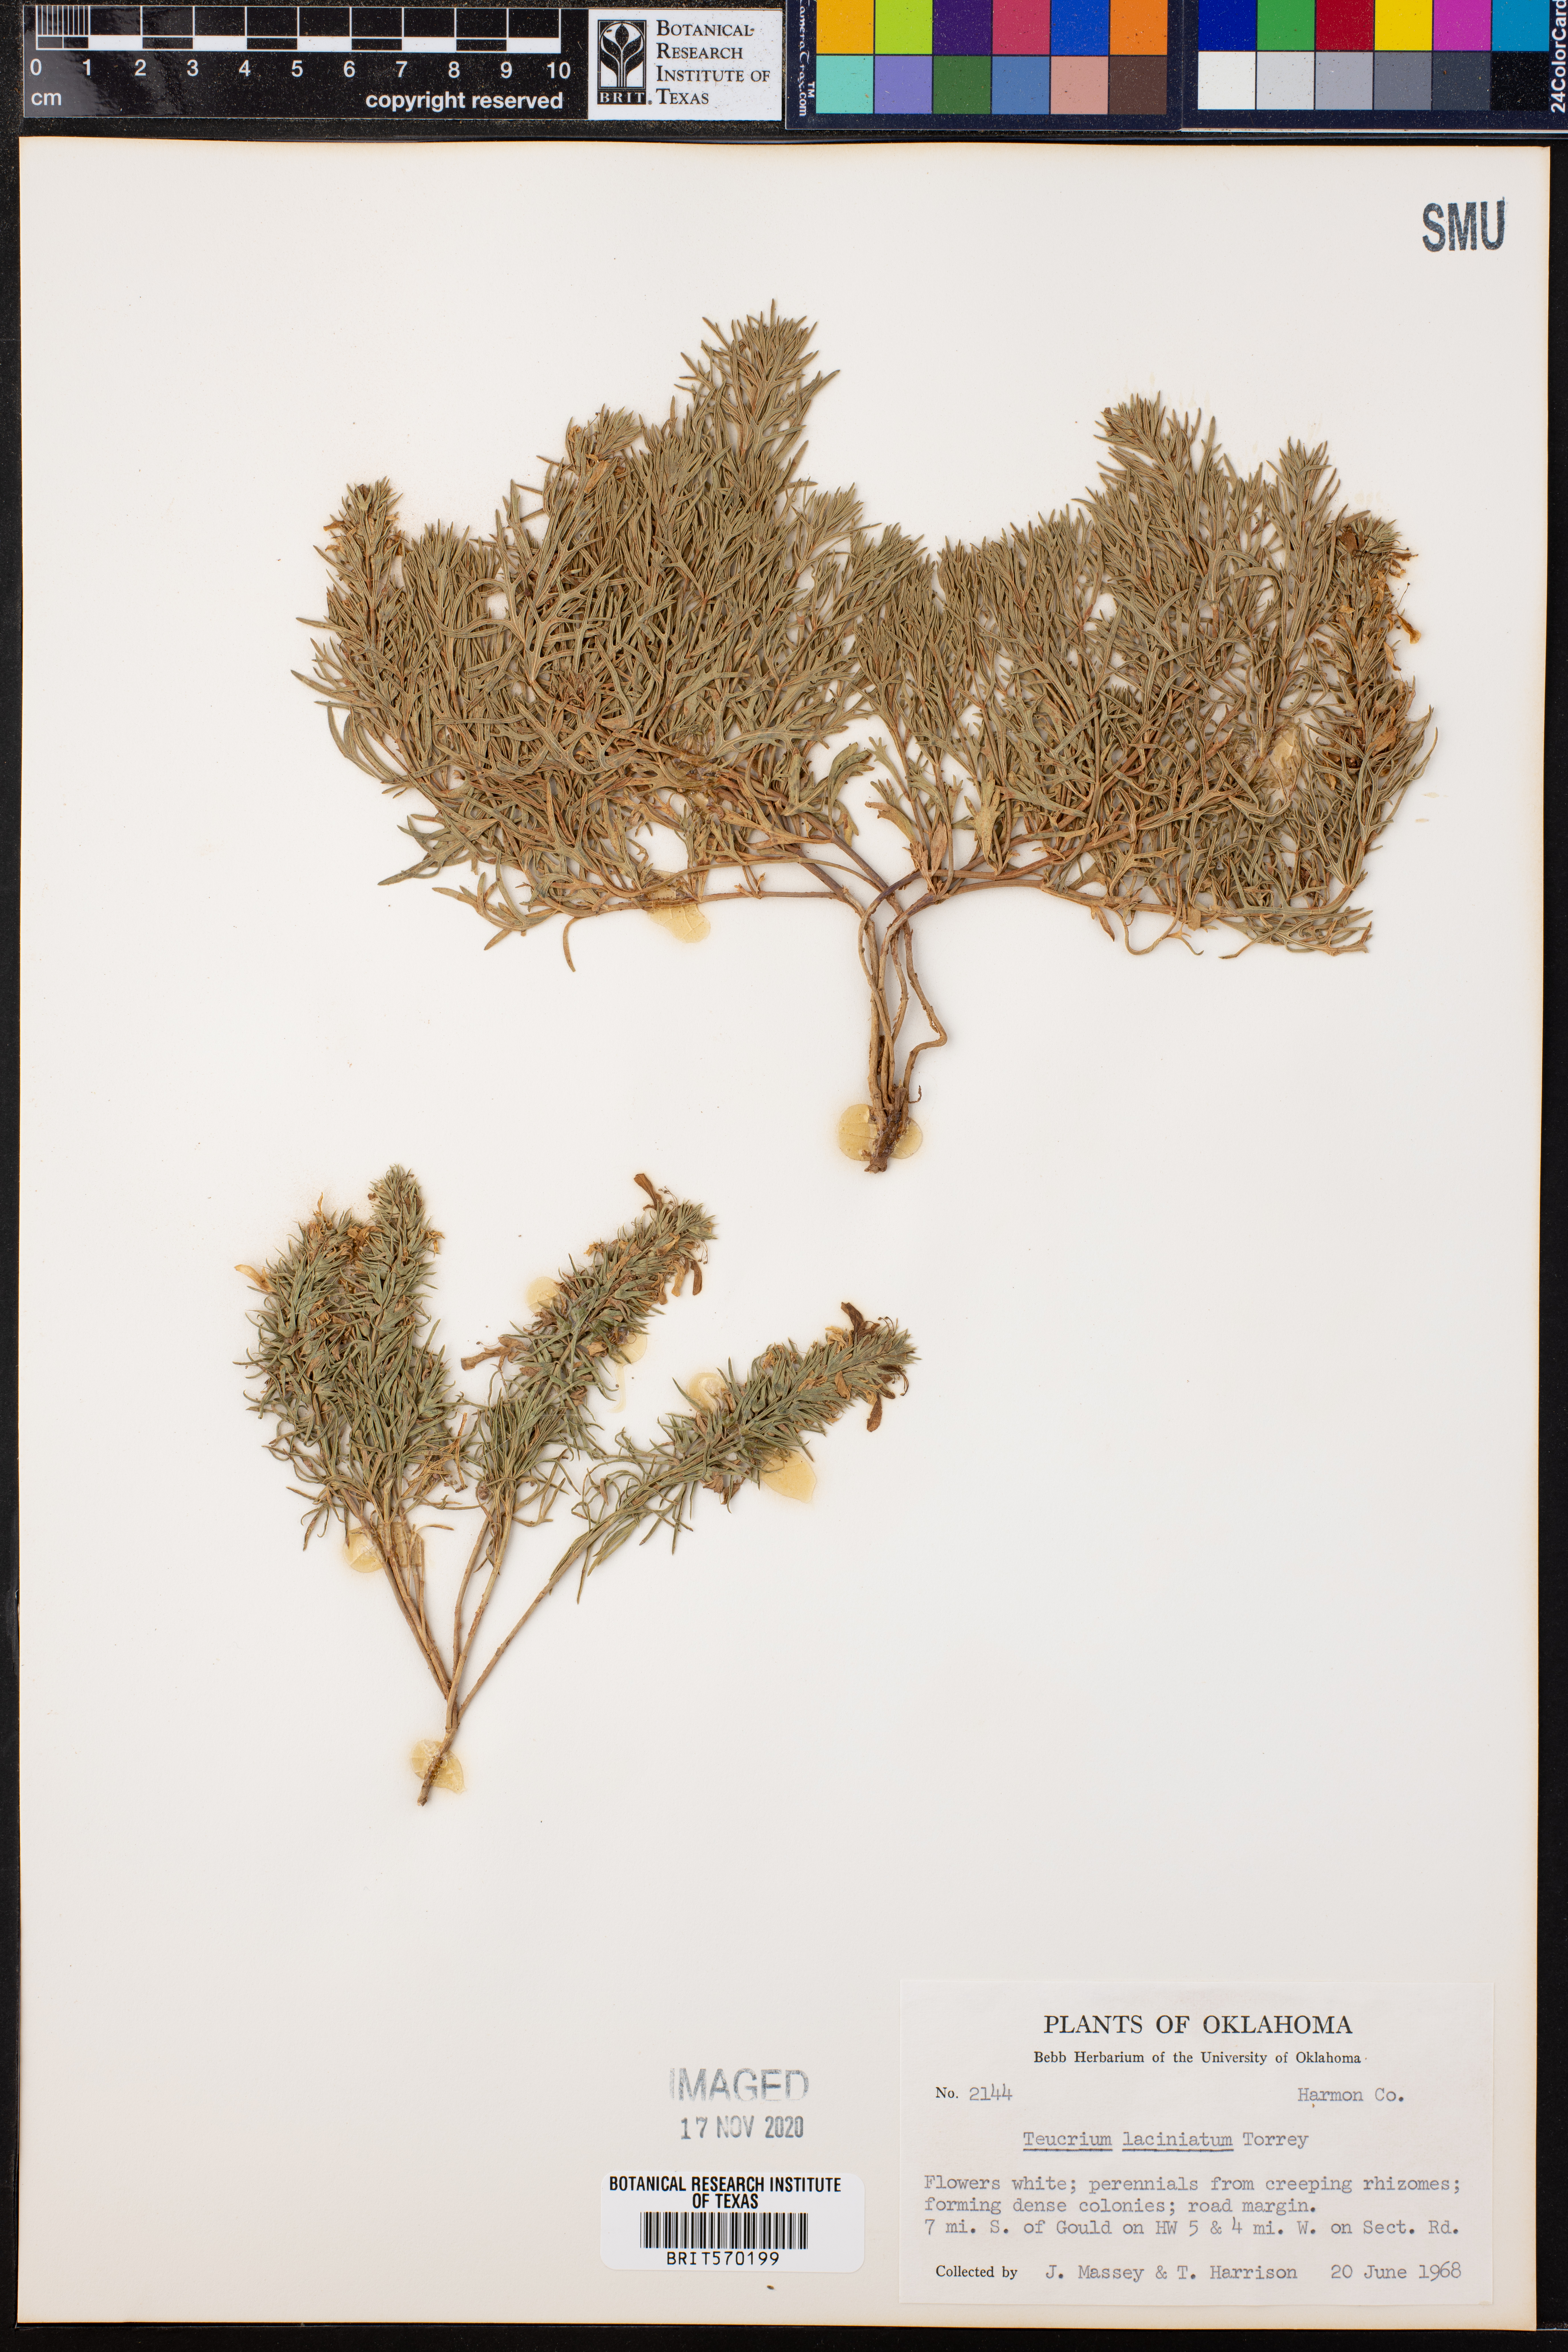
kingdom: Plantae
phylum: Tracheophyta
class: Magnoliopsida
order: Lamiales
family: Lamiaceae
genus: Teucrium
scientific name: Teucrium laciniatum
